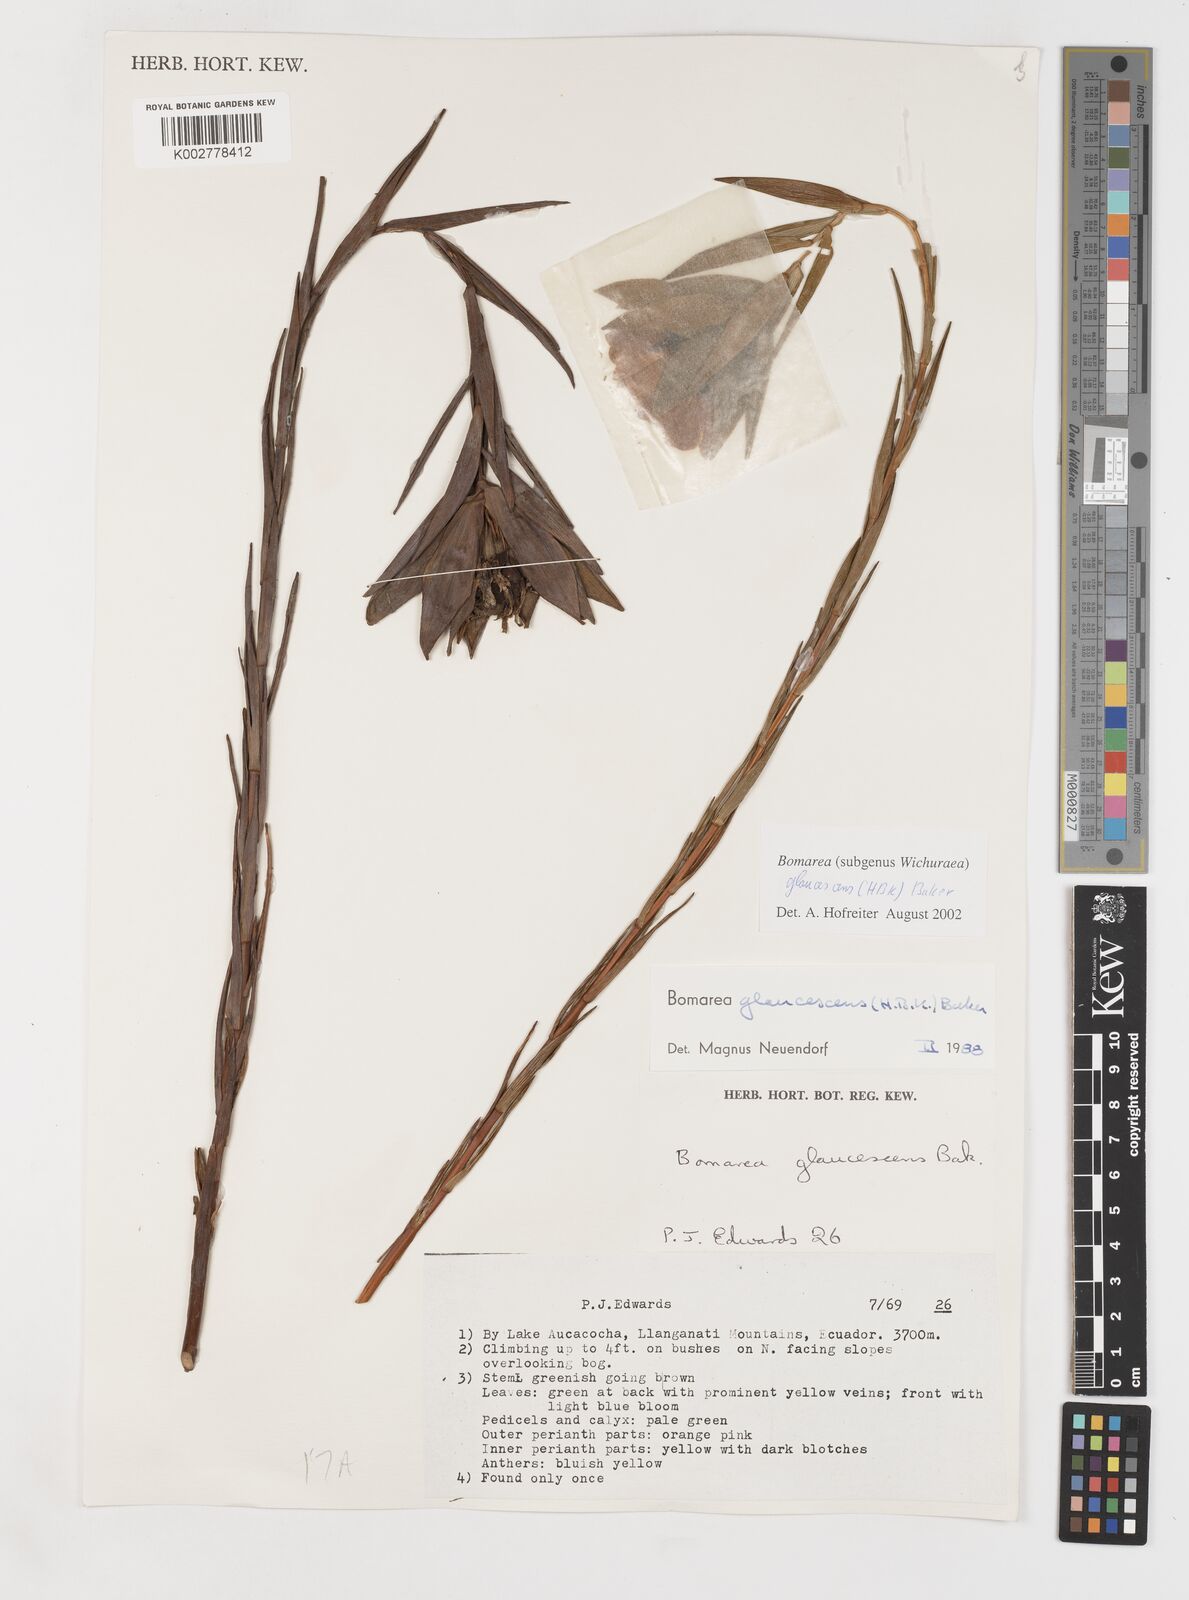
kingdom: Plantae
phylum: Tracheophyta
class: Liliopsida
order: Liliales
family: Alstroemeriaceae
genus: Bomarea
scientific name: Bomarea glaucescens
